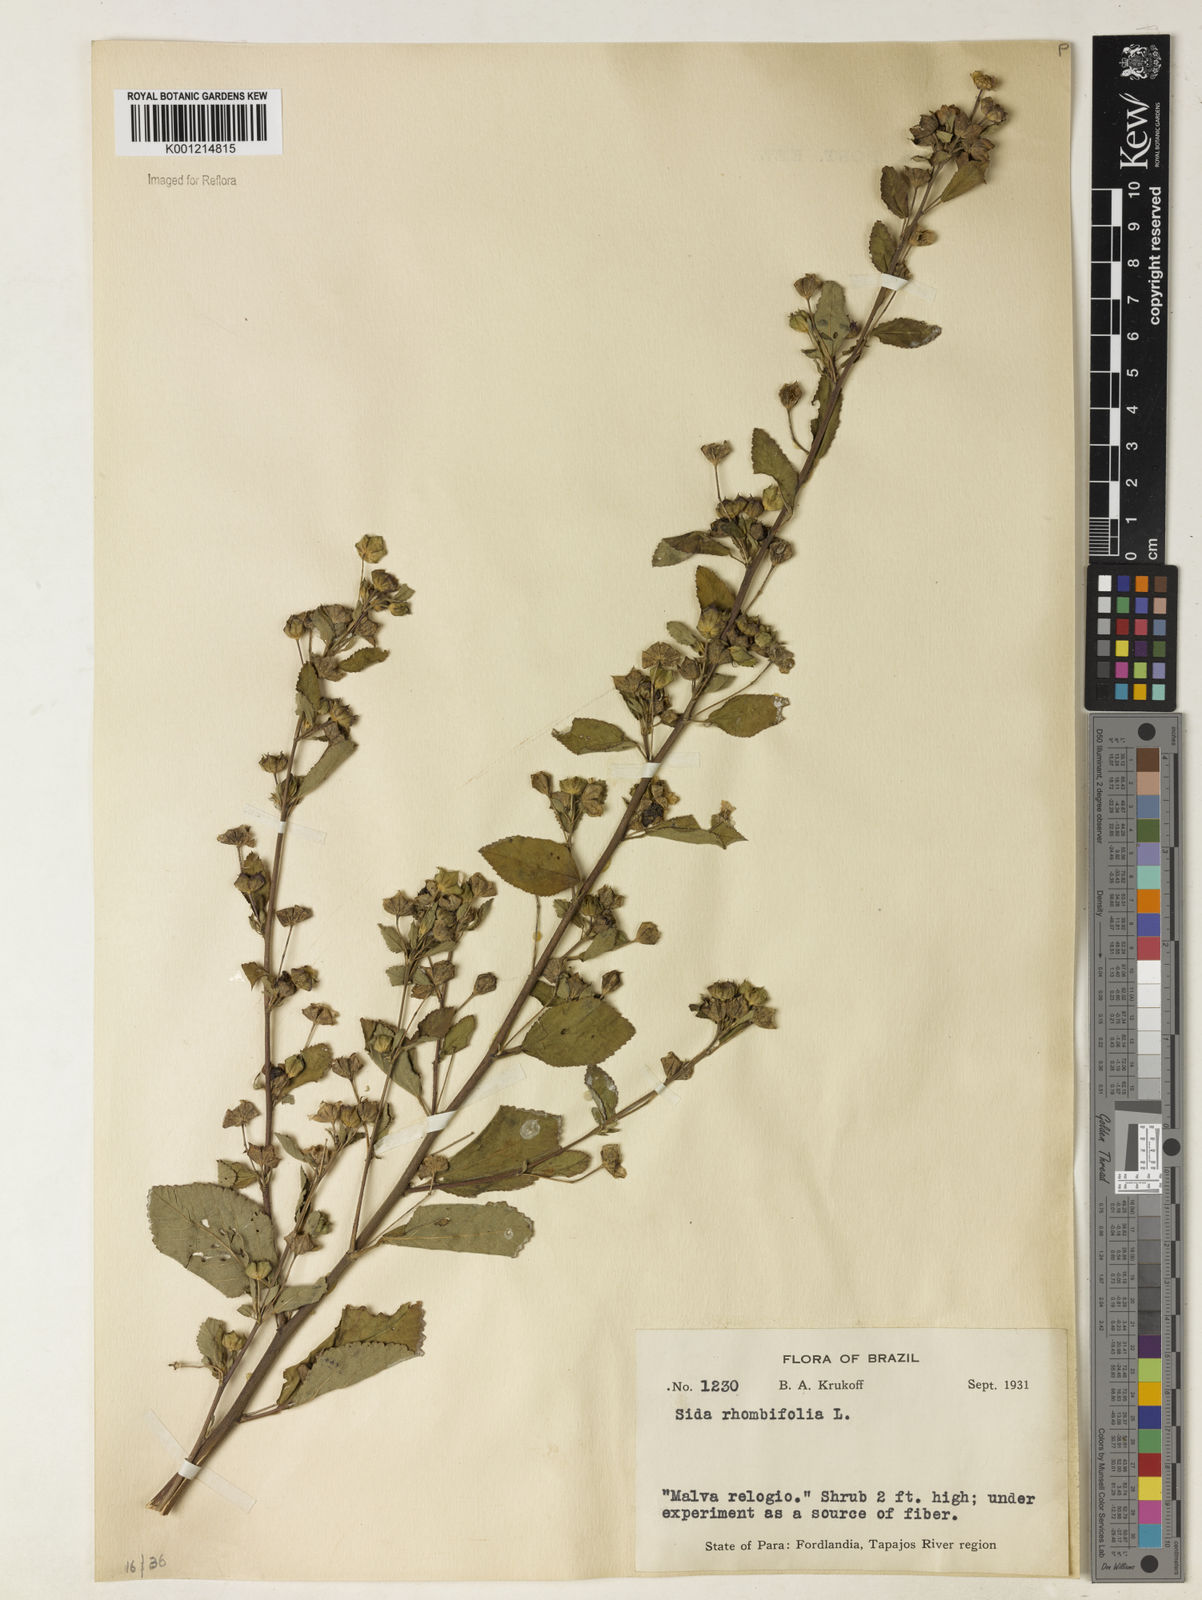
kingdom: Plantae
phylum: Tracheophyta
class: Magnoliopsida
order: Malvales
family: Malvaceae
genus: Sida
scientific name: Sida rhombifolia
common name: Queensland-hemp
